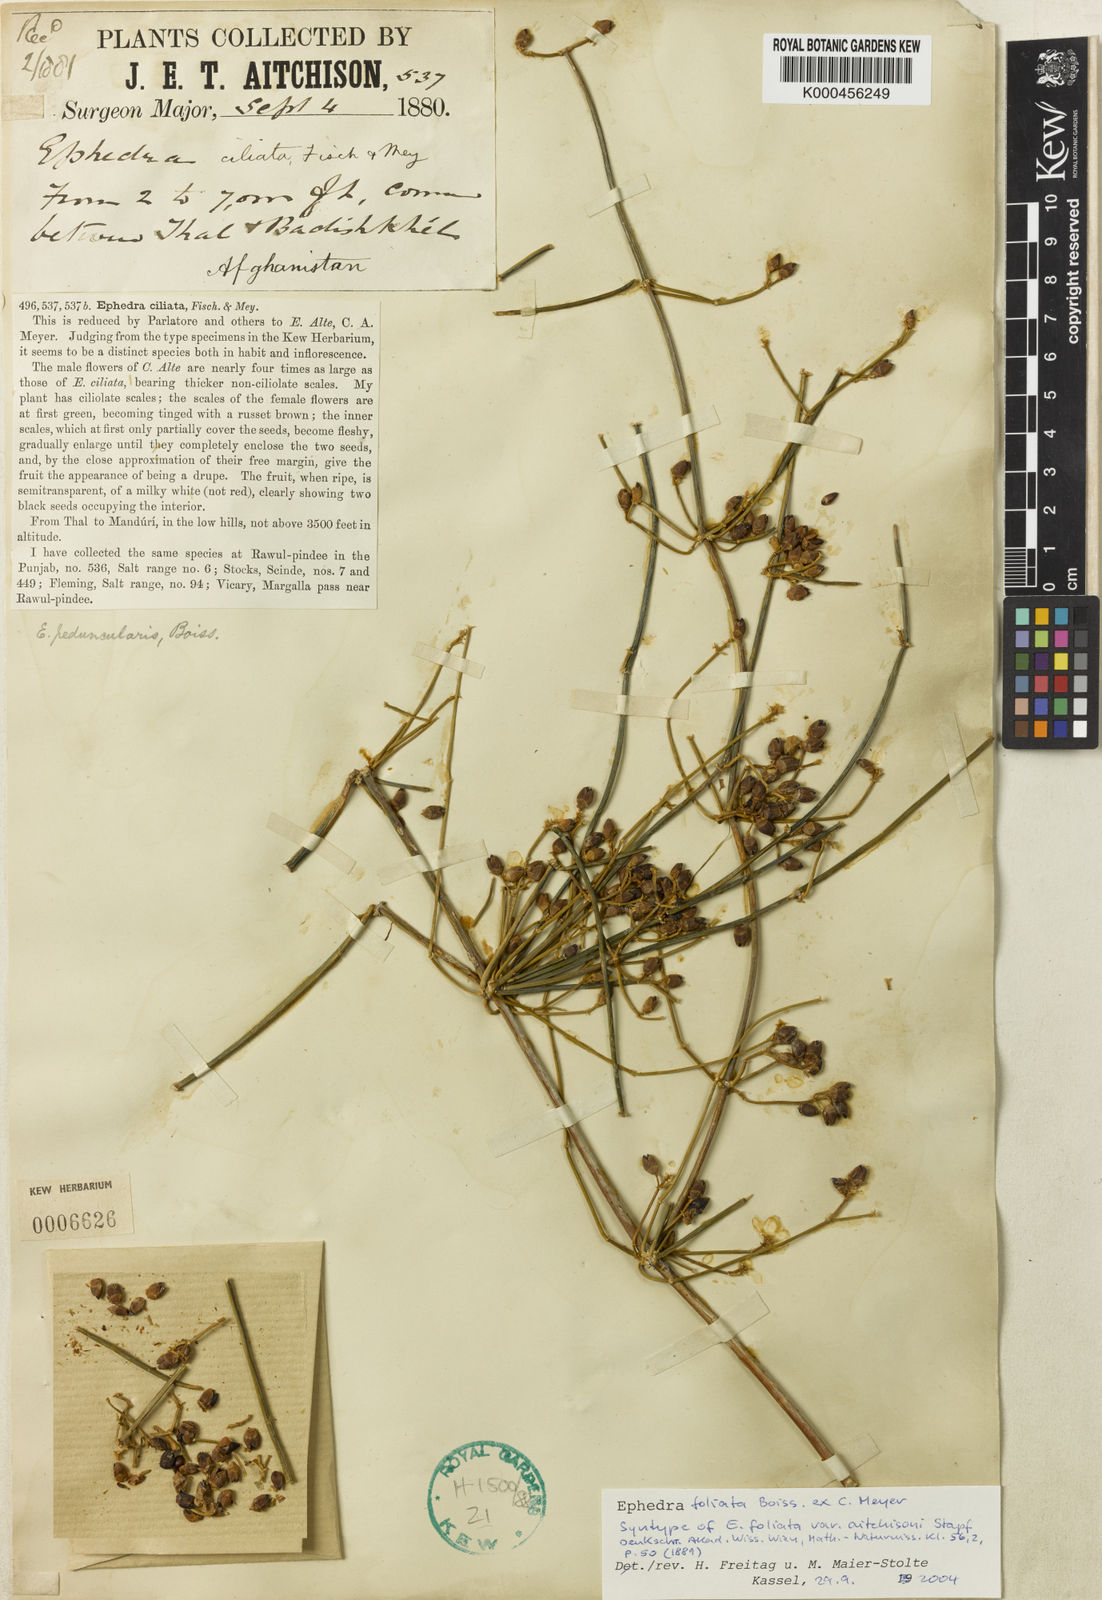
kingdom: Plantae
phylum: Tracheophyta
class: Gnetopsida
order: Ephedrales
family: Ephedraceae
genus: Ephedra
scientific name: Ephedra ciliata
